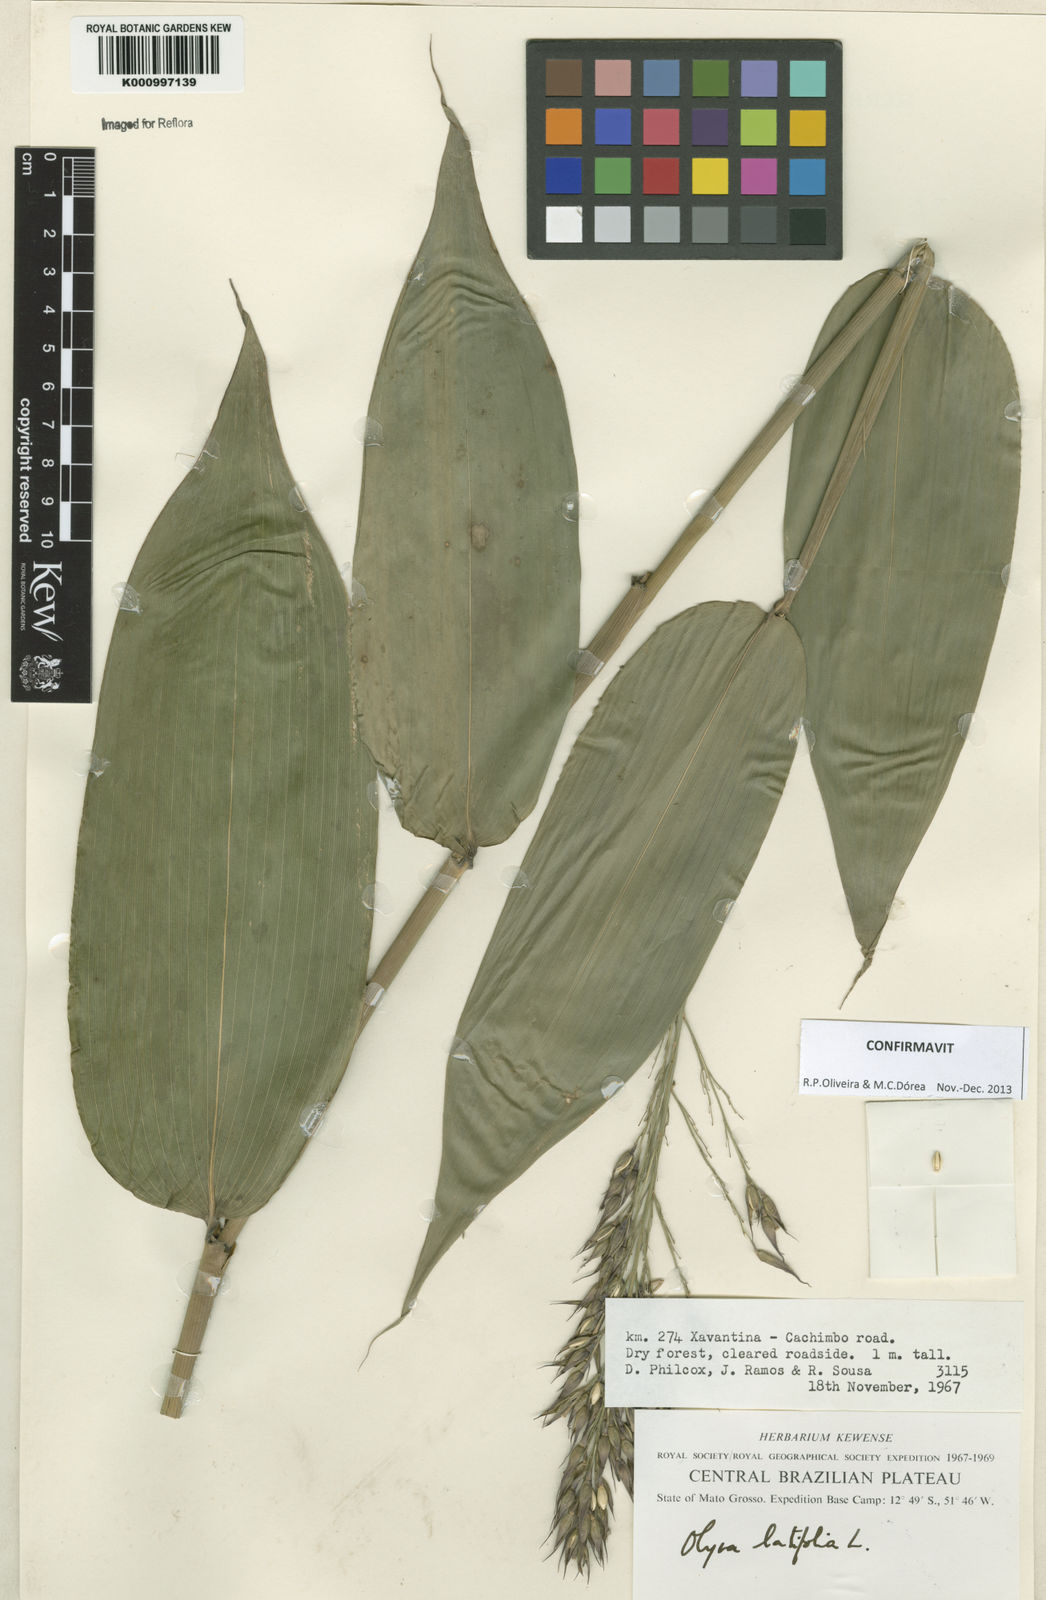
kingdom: Plantae
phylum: Tracheophyta
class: Liliopsida
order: Poales
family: Poaceae
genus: Olyra
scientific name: Olyra latifolia
